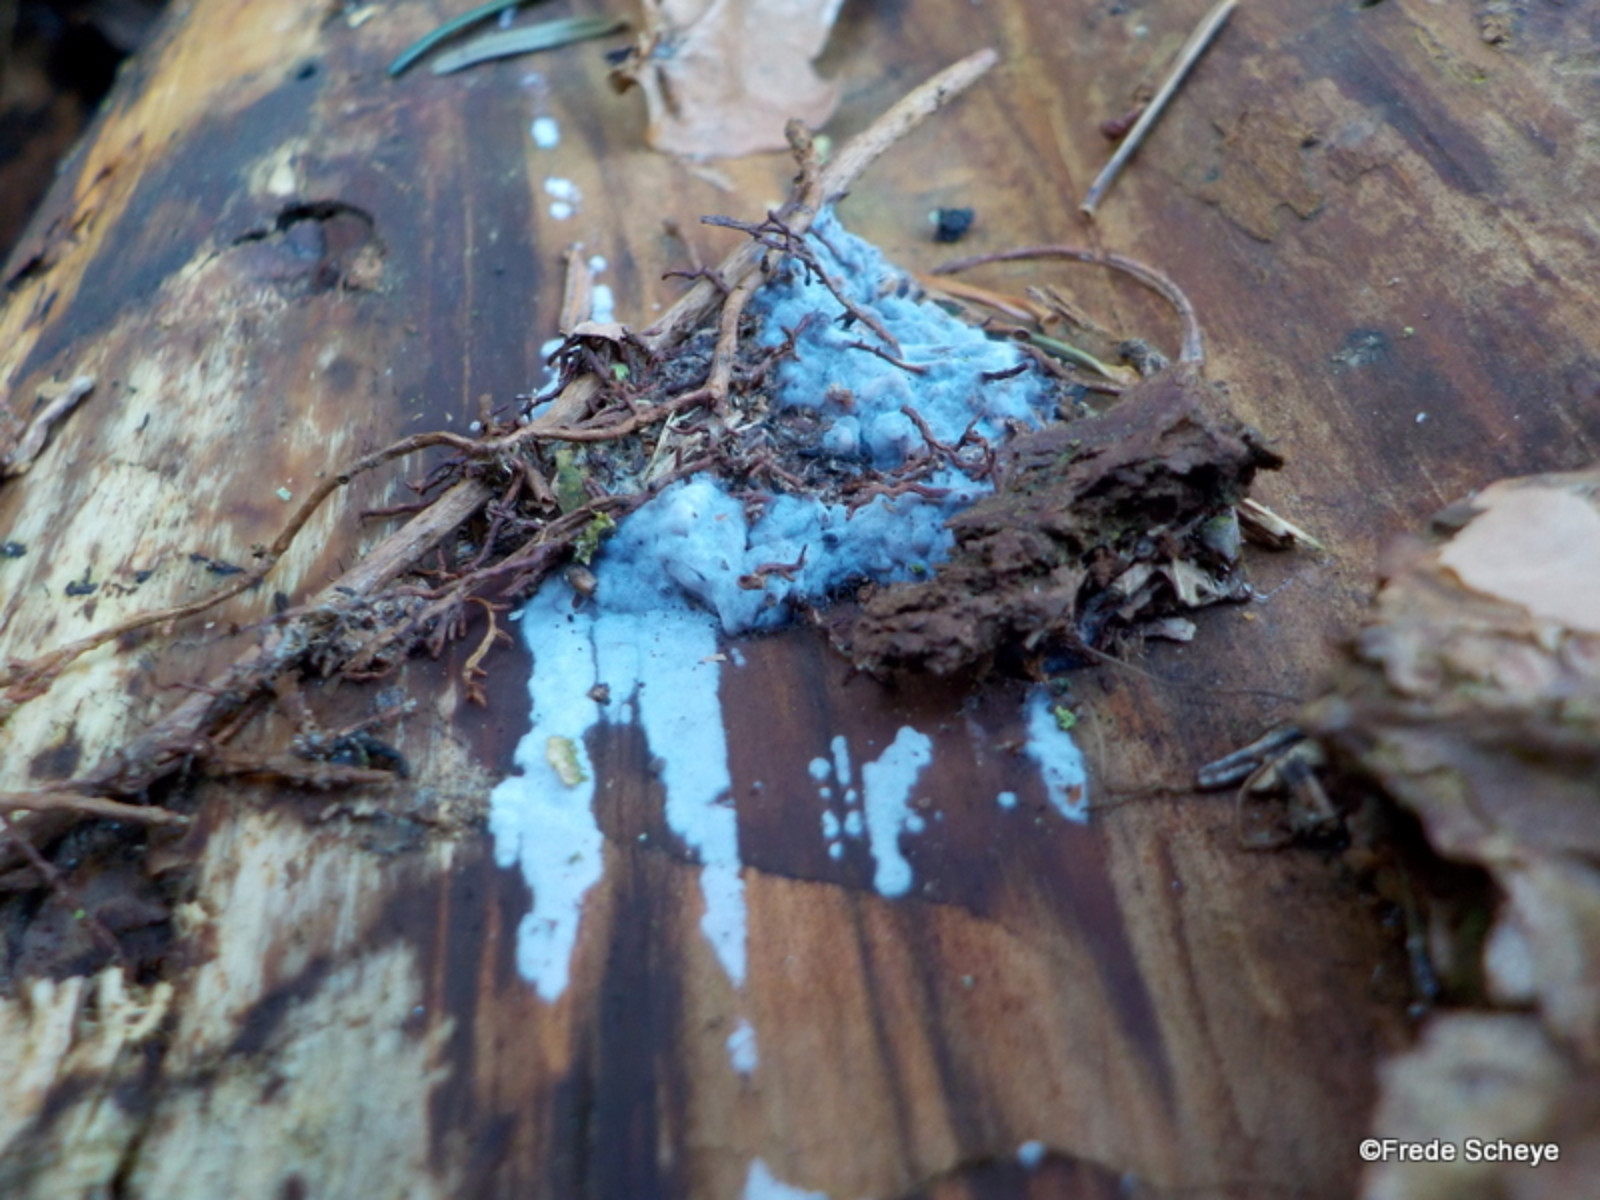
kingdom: Fungi
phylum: Basidiomycota
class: Agaricomycetes
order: Sebacinales
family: Sebacinaceae
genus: Sebacina
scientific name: Sebacina grisea
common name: blågrå bævrehinde
